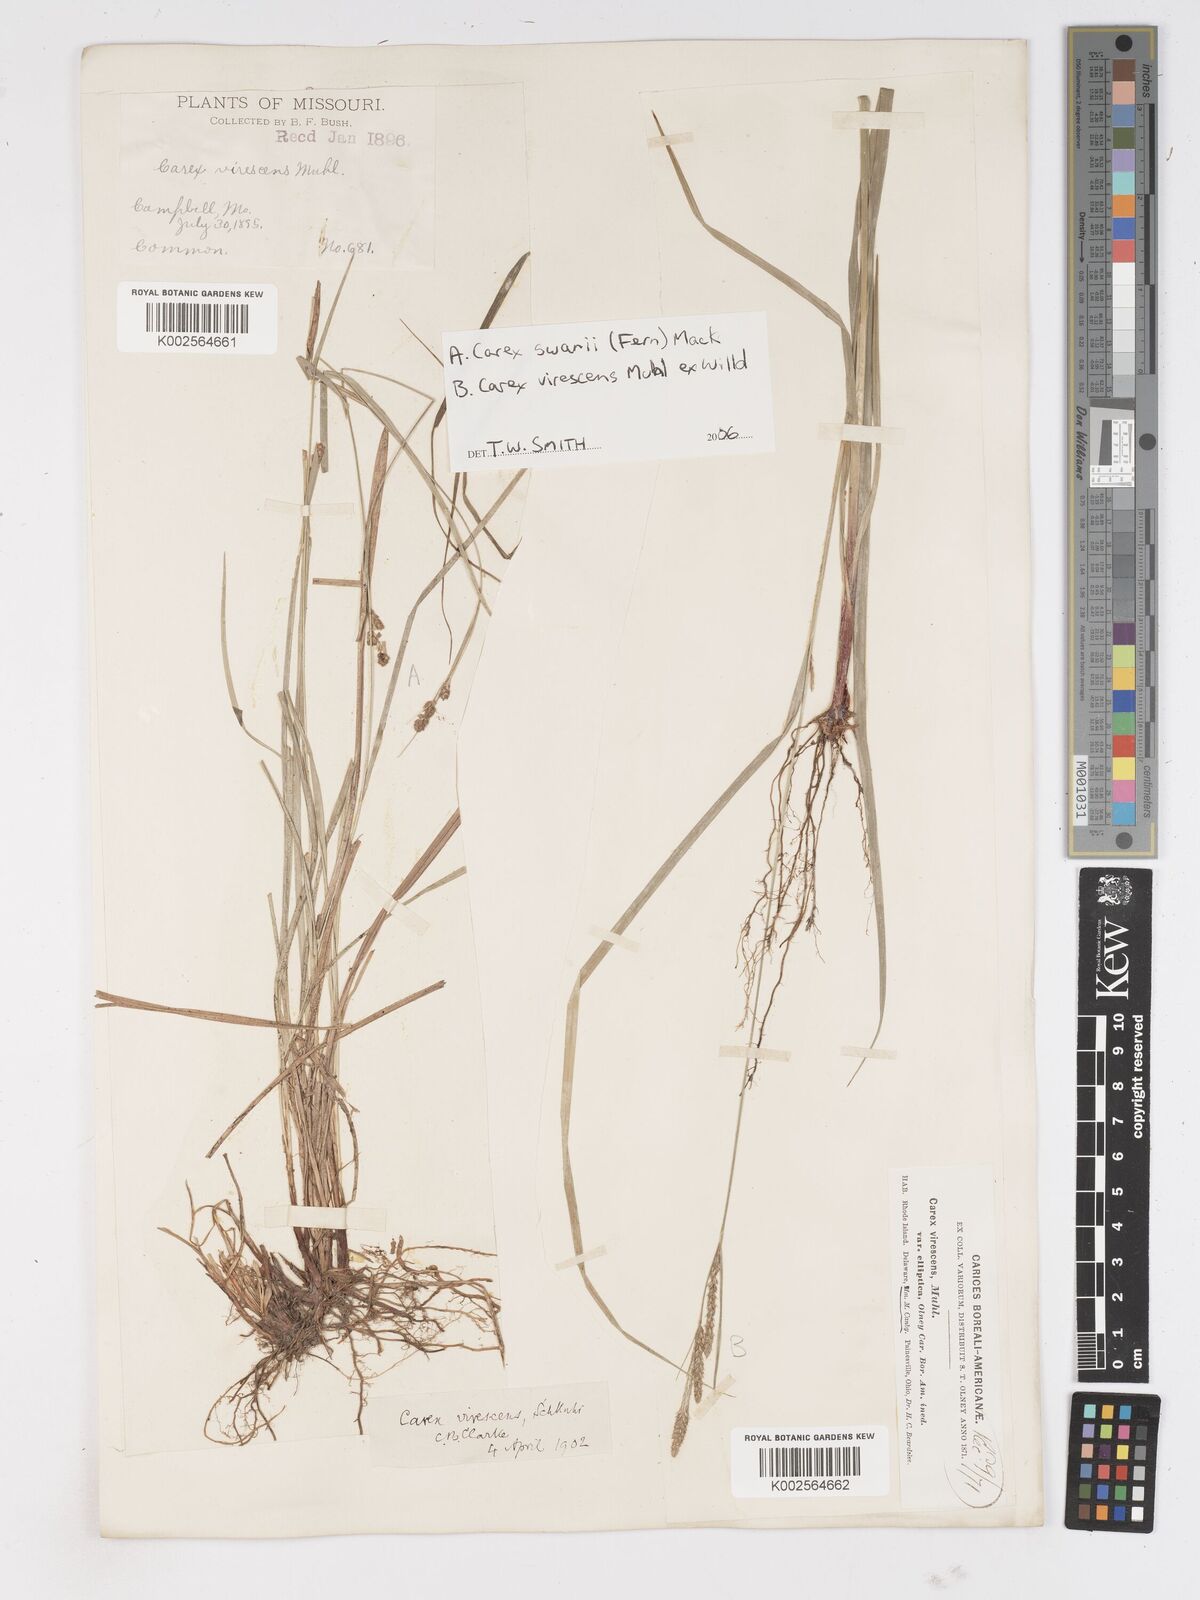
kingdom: Plantae
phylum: Tracheophyta
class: Liliopsida
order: Poales
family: Cyperaceae
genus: Carex
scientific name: Carex
